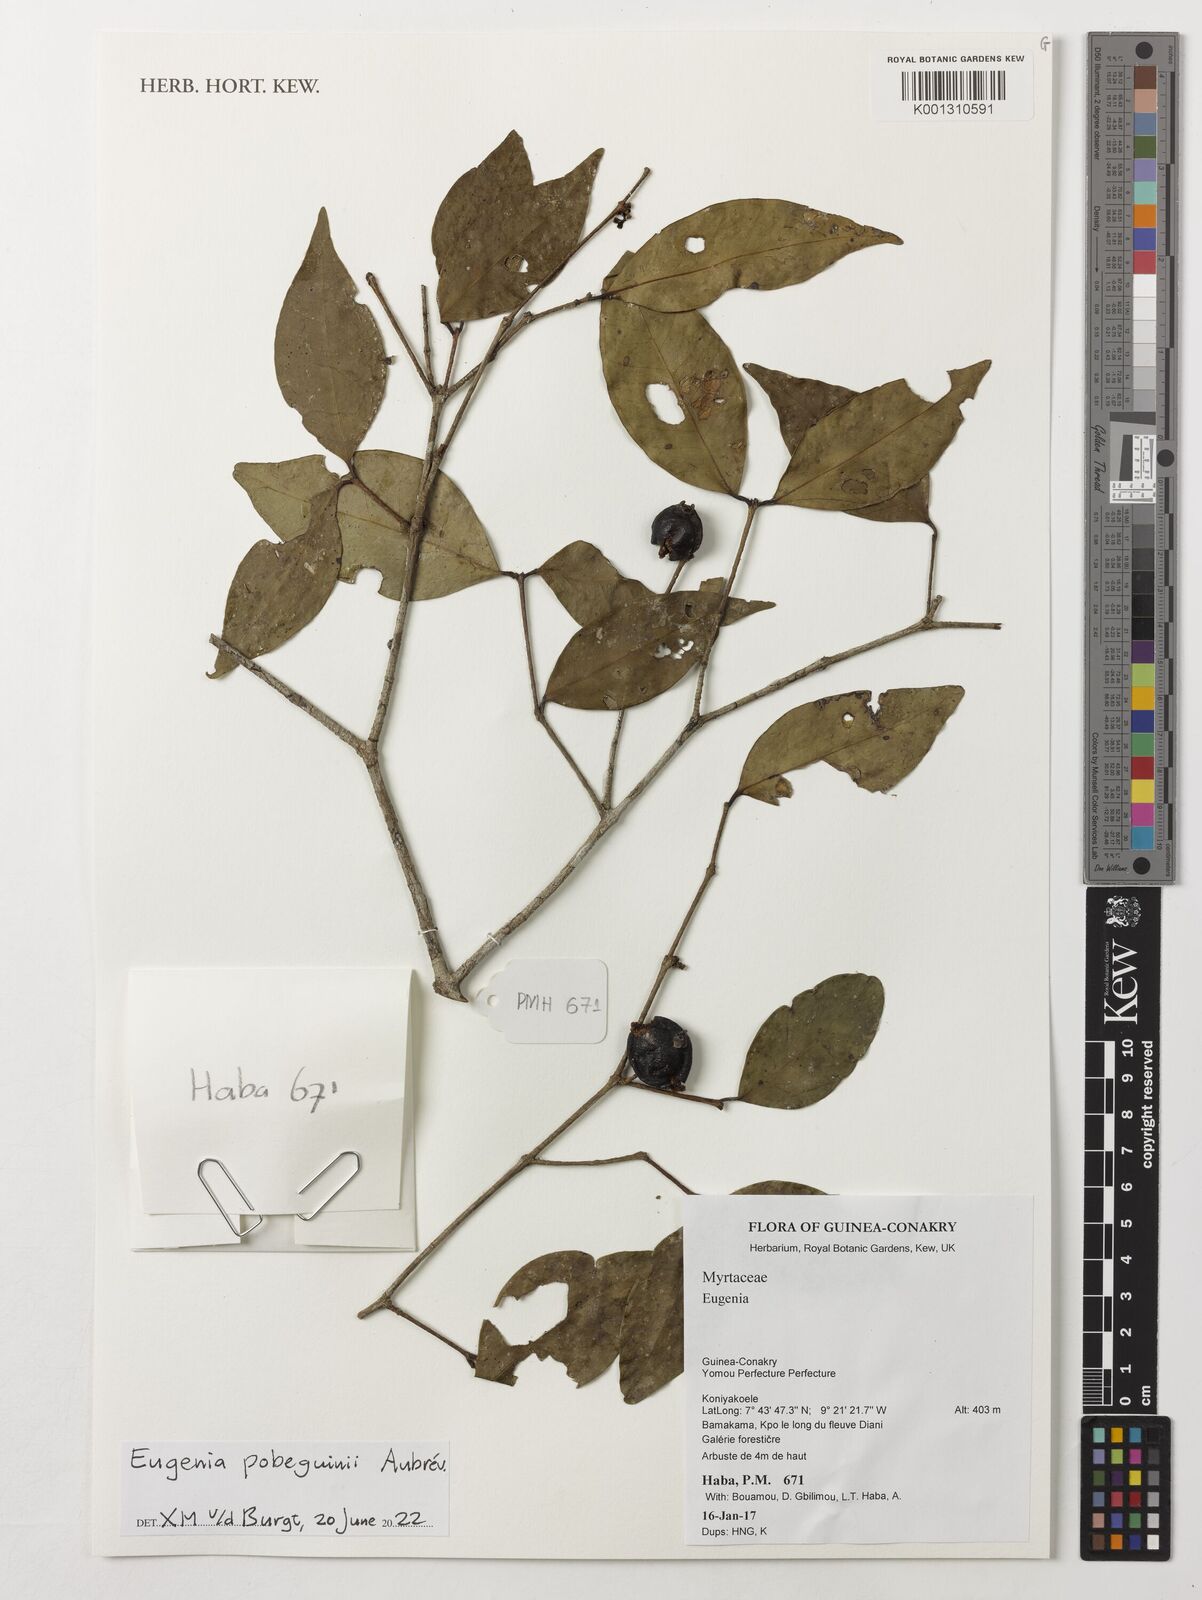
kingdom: Plantae
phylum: Tracheophyta
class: Magnoliopsida
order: Myrtales
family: Myrtaceae
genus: Eugenia
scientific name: Eugenia
